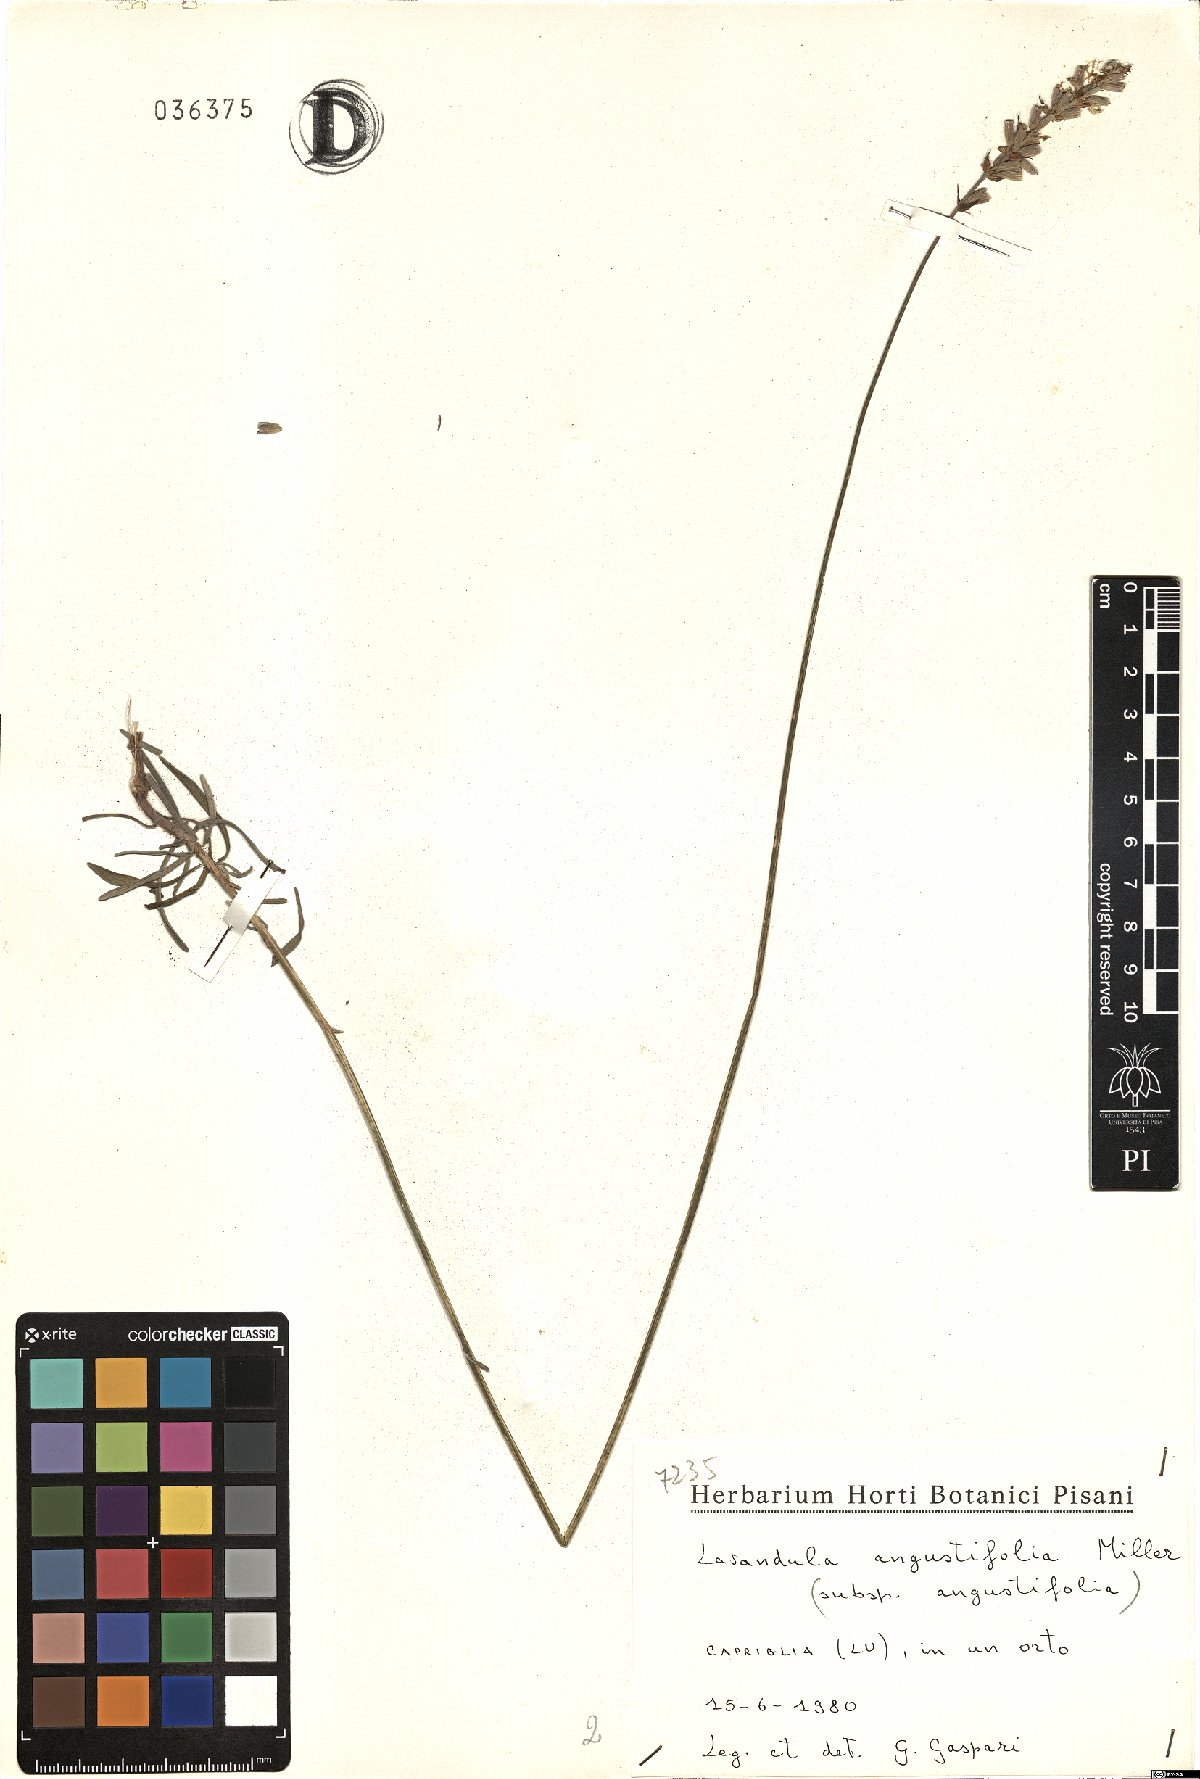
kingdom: Plantae
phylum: Tracheophyta
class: Magnoliopsida
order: Lamiales
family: Lamiaceae
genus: Lavandula
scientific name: Lavandula angustifolia
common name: Garden lavender
